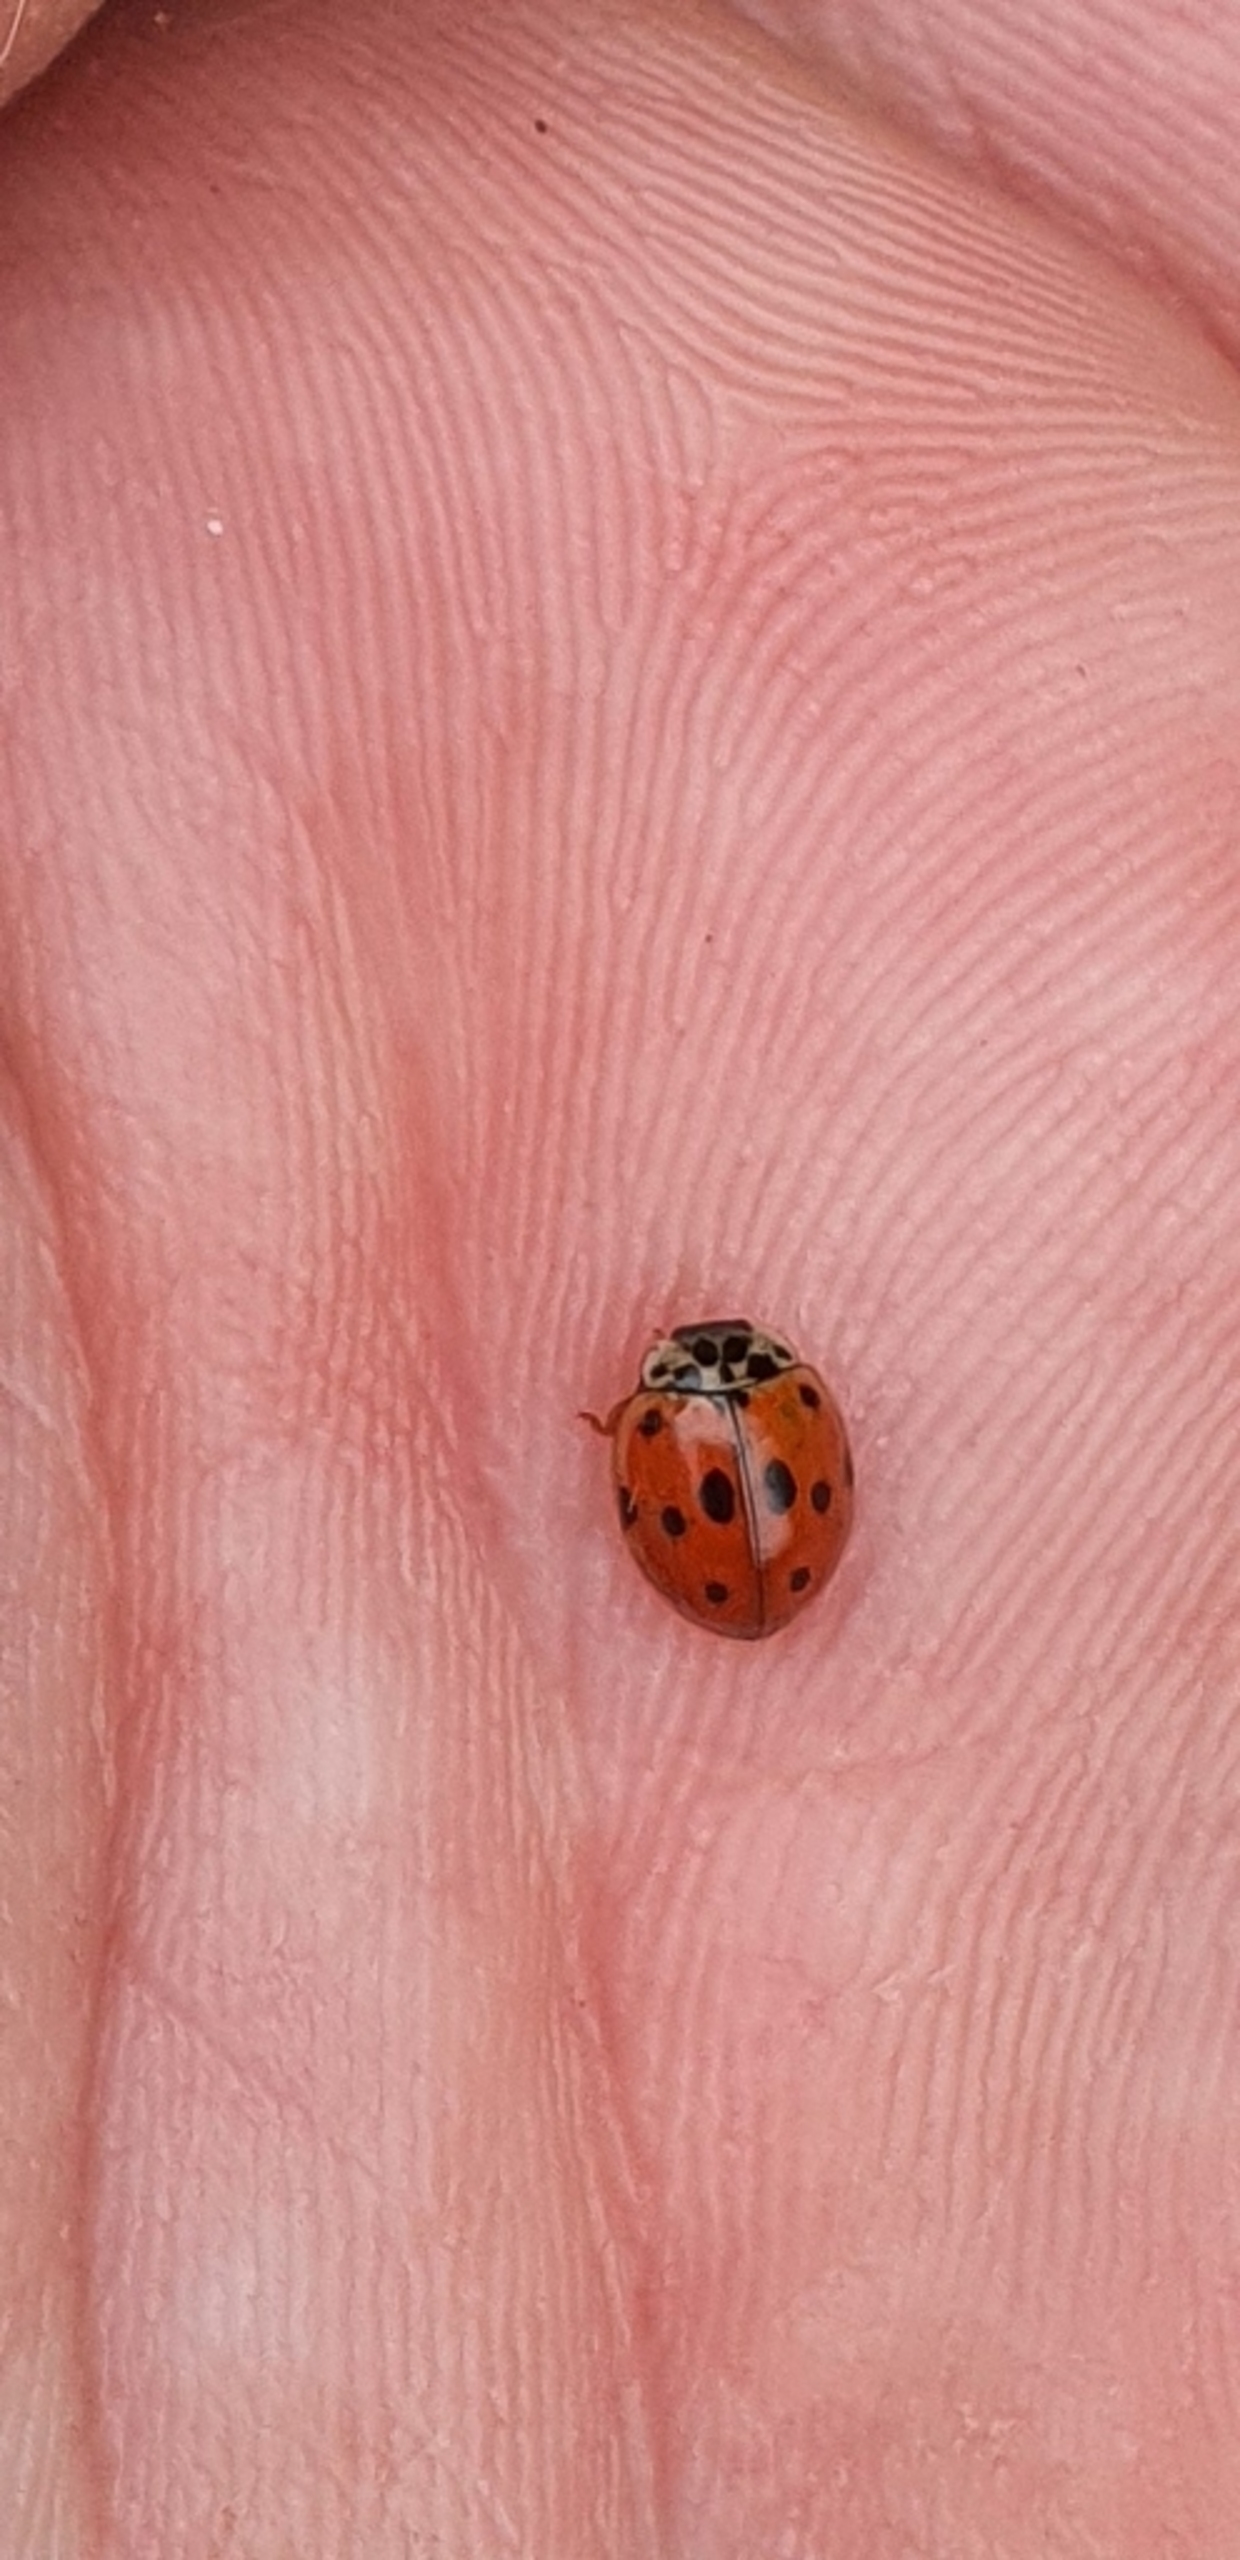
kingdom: Animalia
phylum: Arthropoda
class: Insecta
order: Coleoptera
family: Coccinellidae
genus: Adalia
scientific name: Adalia decempunctata
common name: Tiplettet mariehøne
